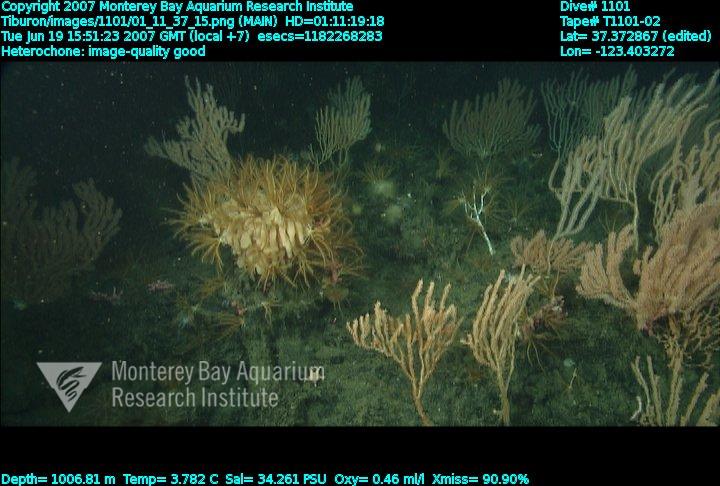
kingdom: Animalia
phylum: Porifera
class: Hexactinellida
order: Sceptrulophora
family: Aphrocallistidae
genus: Heterochone
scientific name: Heterochone
